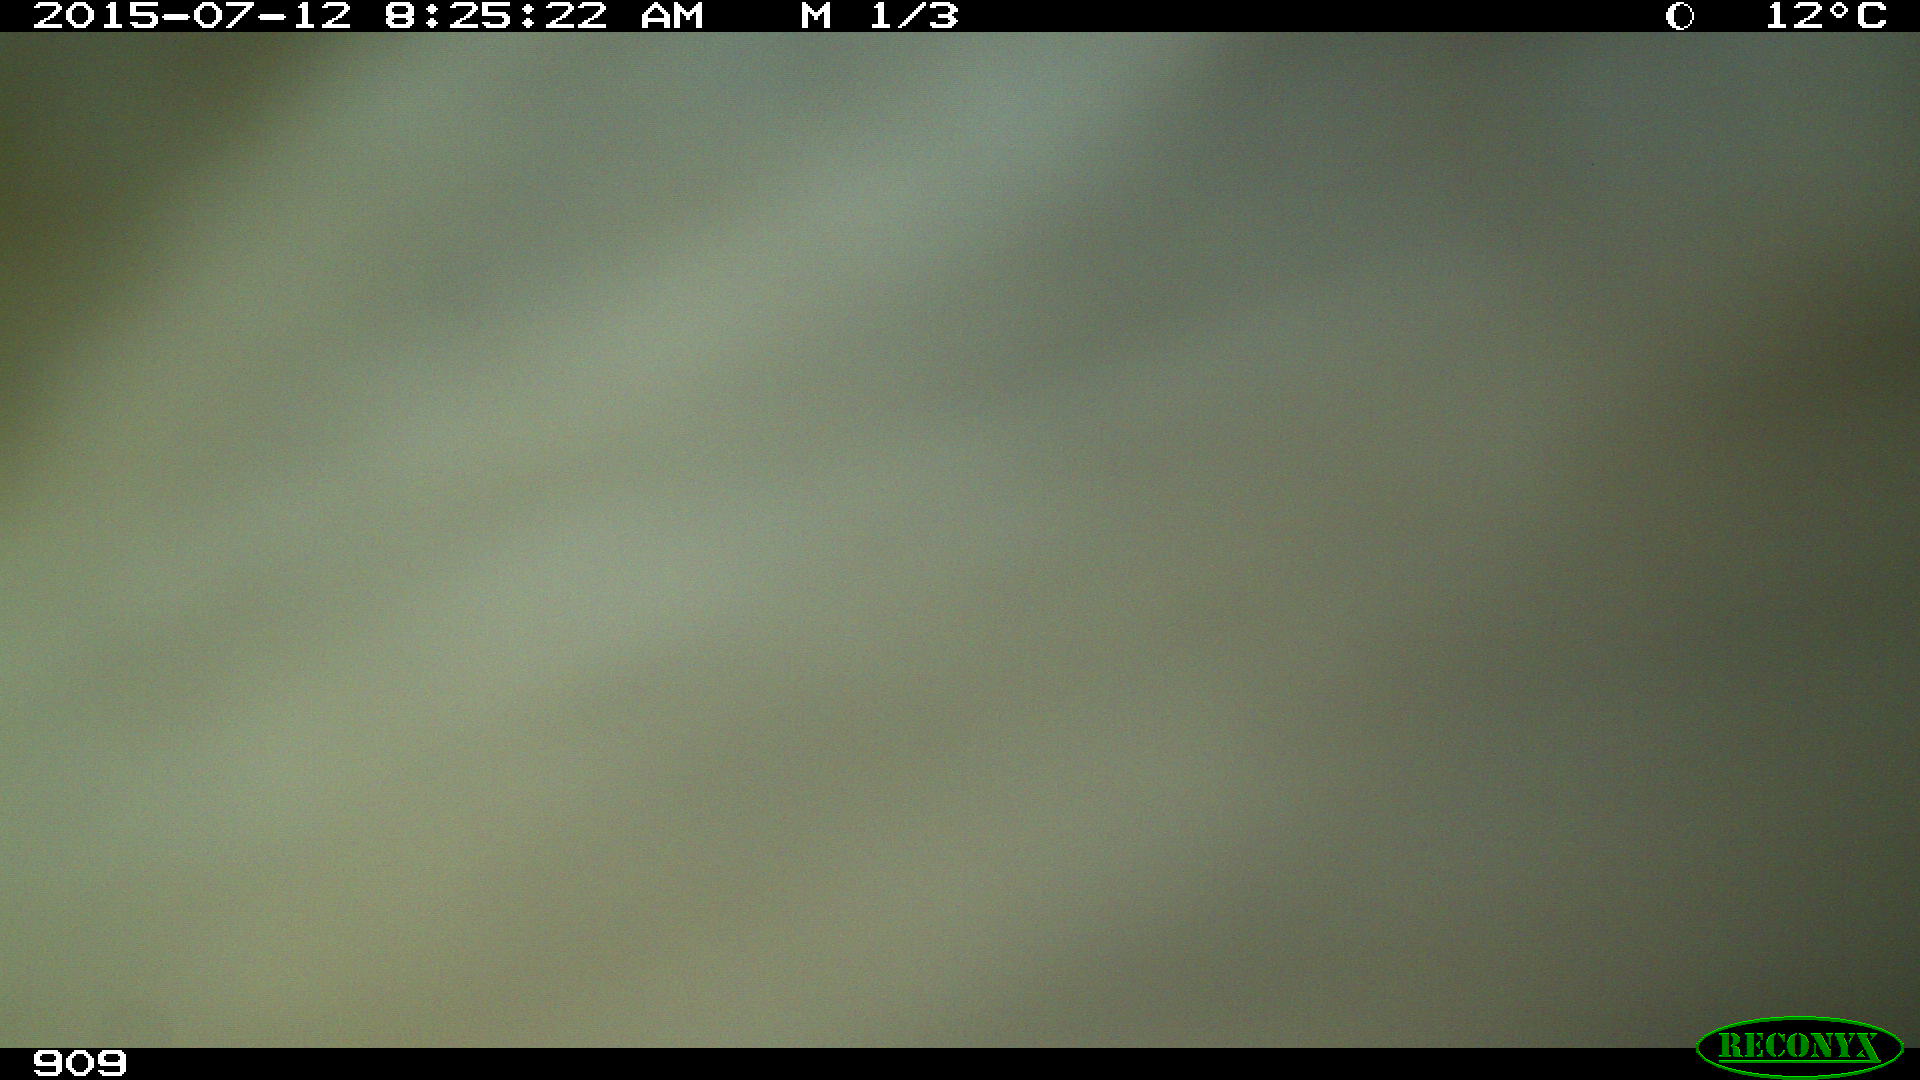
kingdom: Animalia
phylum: Chordata
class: Mammalia
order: Perissodactyla
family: Equidae
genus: Equus
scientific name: Equus caballus
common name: Horse
